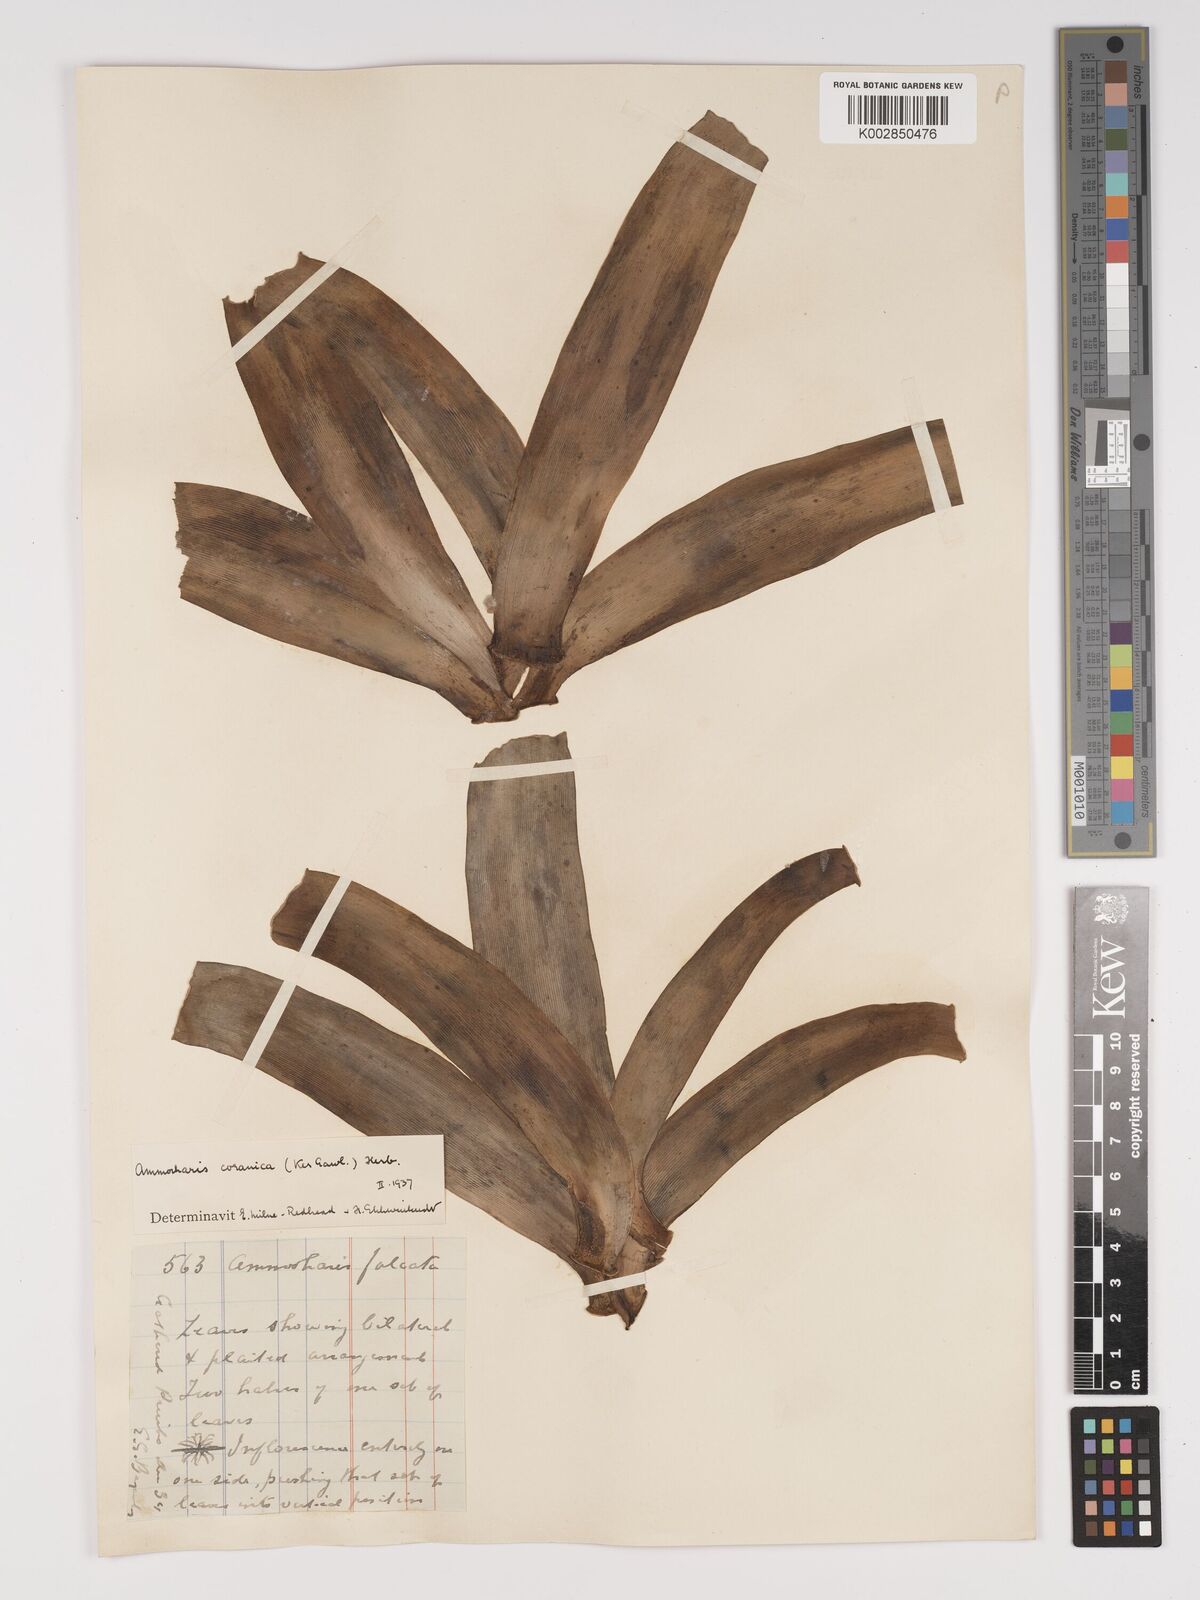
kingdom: Plantae
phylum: Tracheophyta
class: Liliopsida
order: Asparagales
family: Amaryllidaceae
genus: Ammocharis
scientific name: Ammocharis coranica
